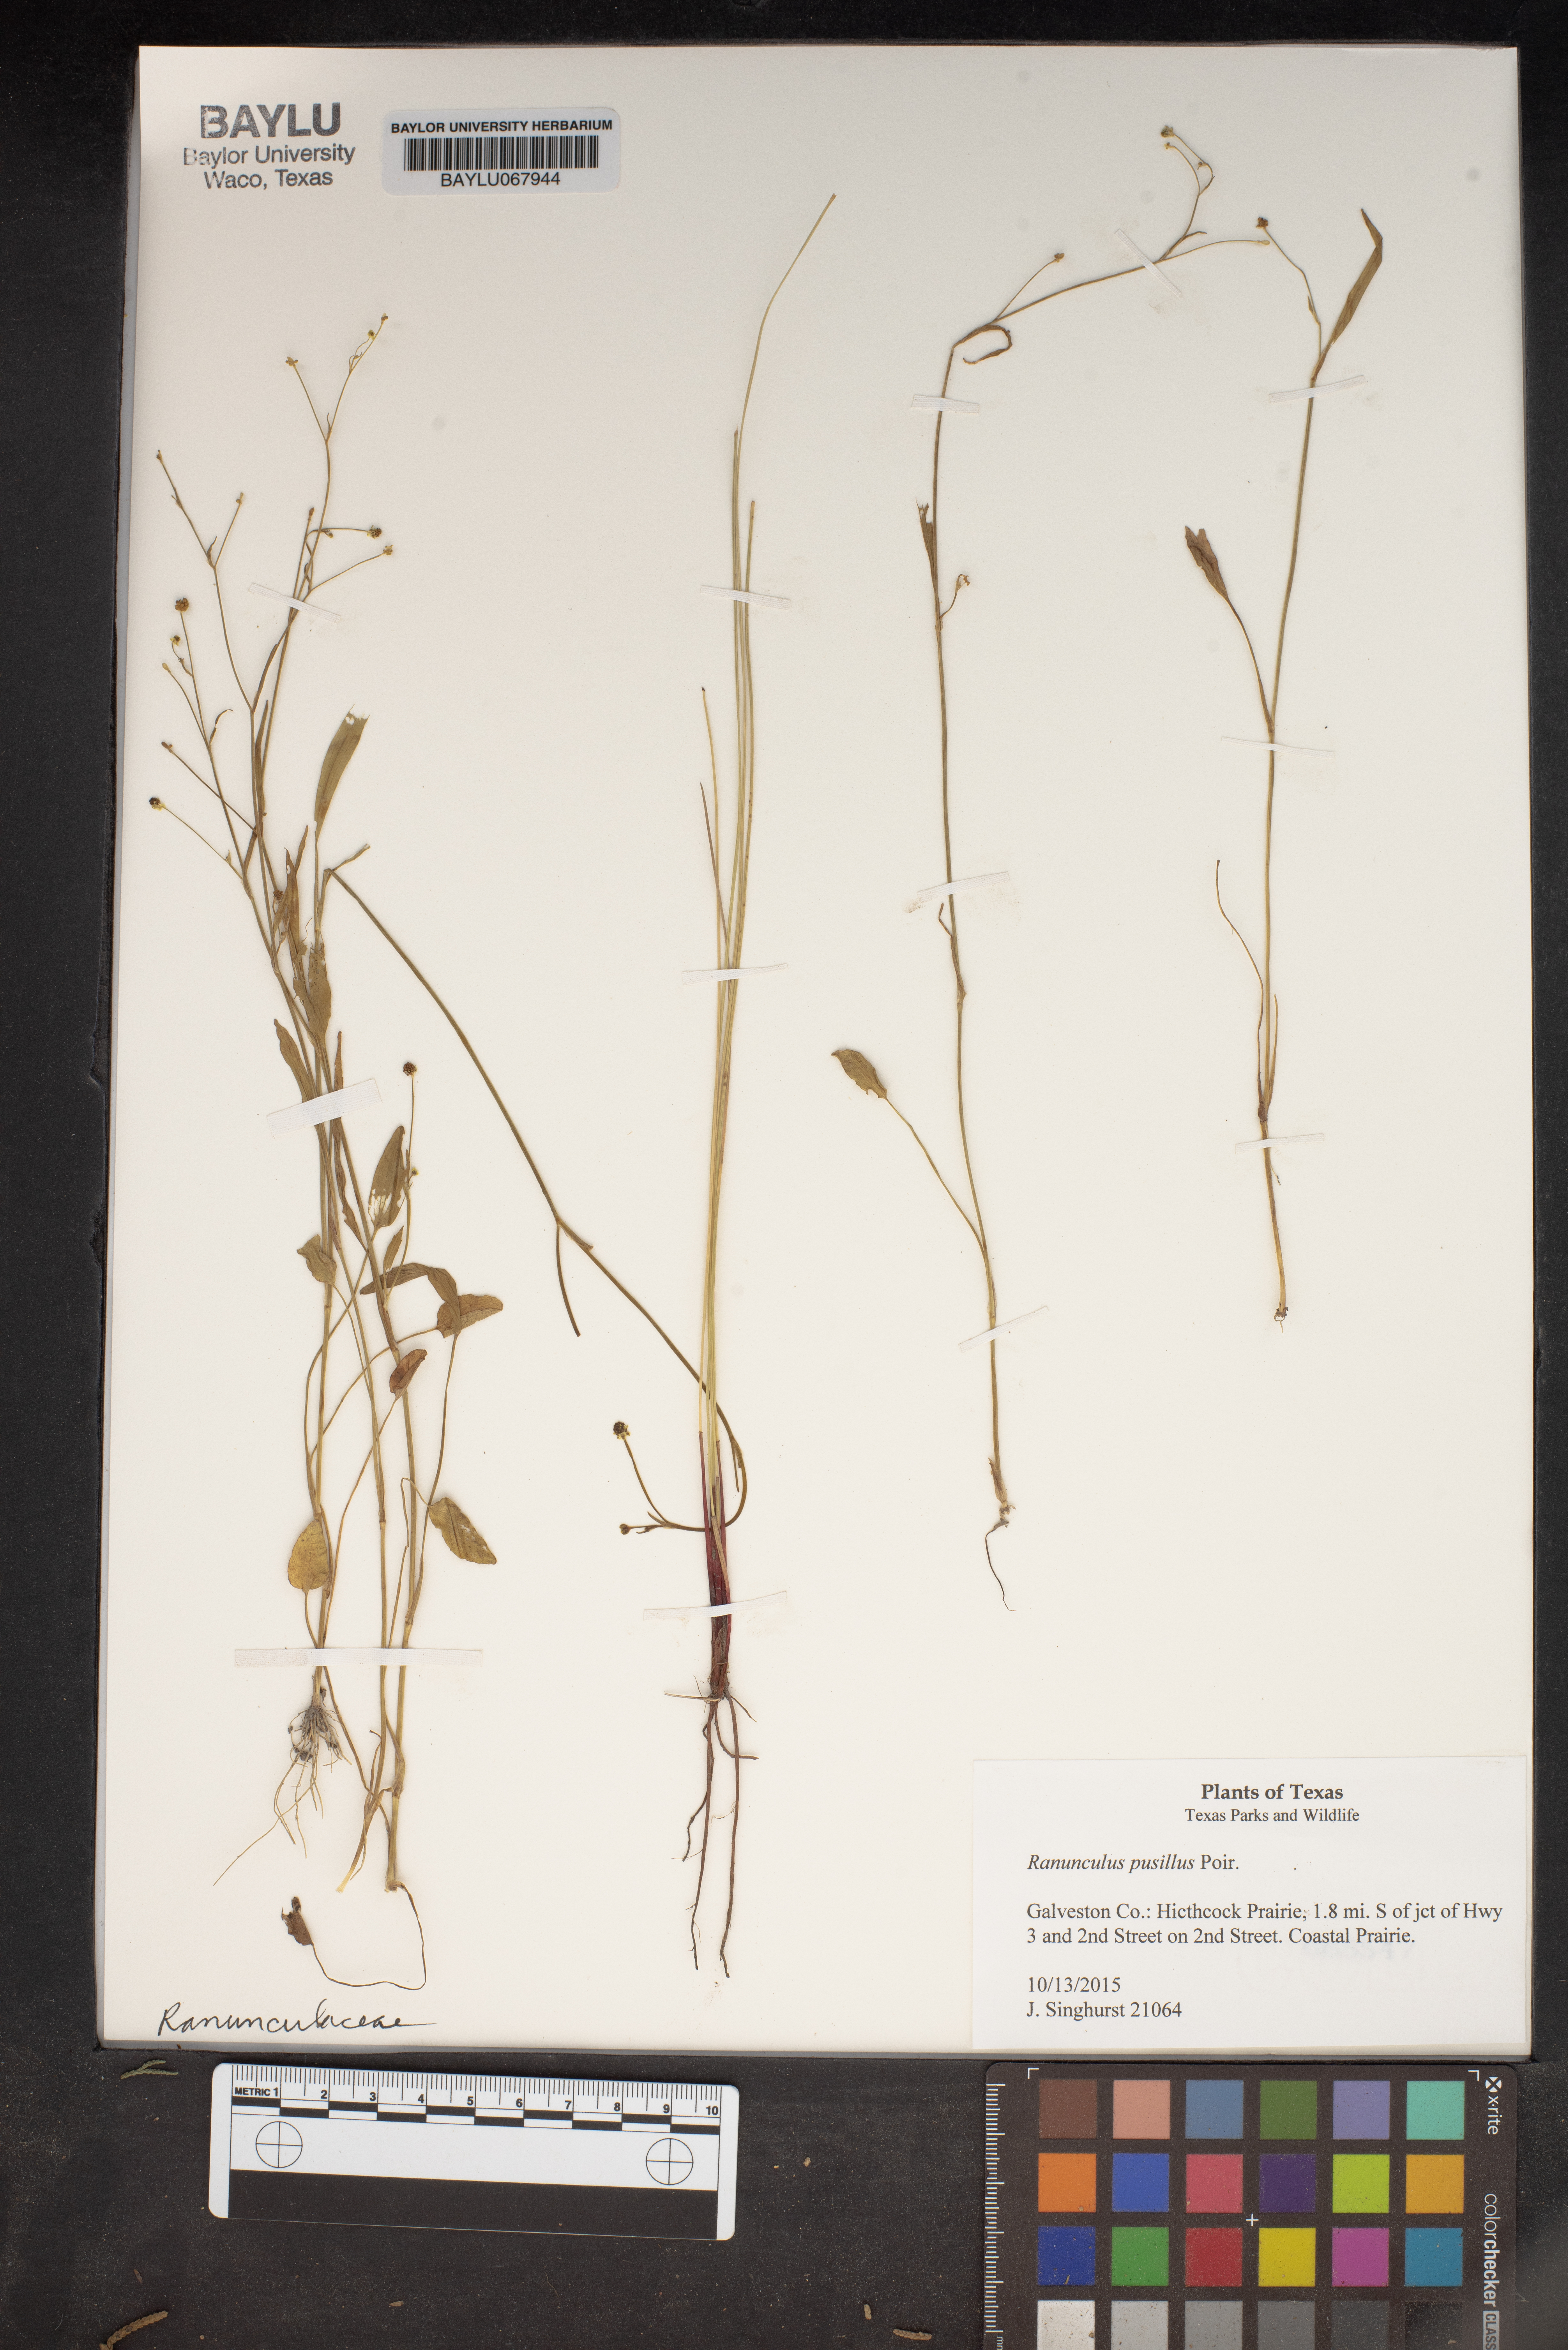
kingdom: Plantae
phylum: Tracheophyta
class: Magnoliopsida
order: Ranunculales
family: Ranunculaceae
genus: Ranunculus
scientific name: Ranunculus pusillus
